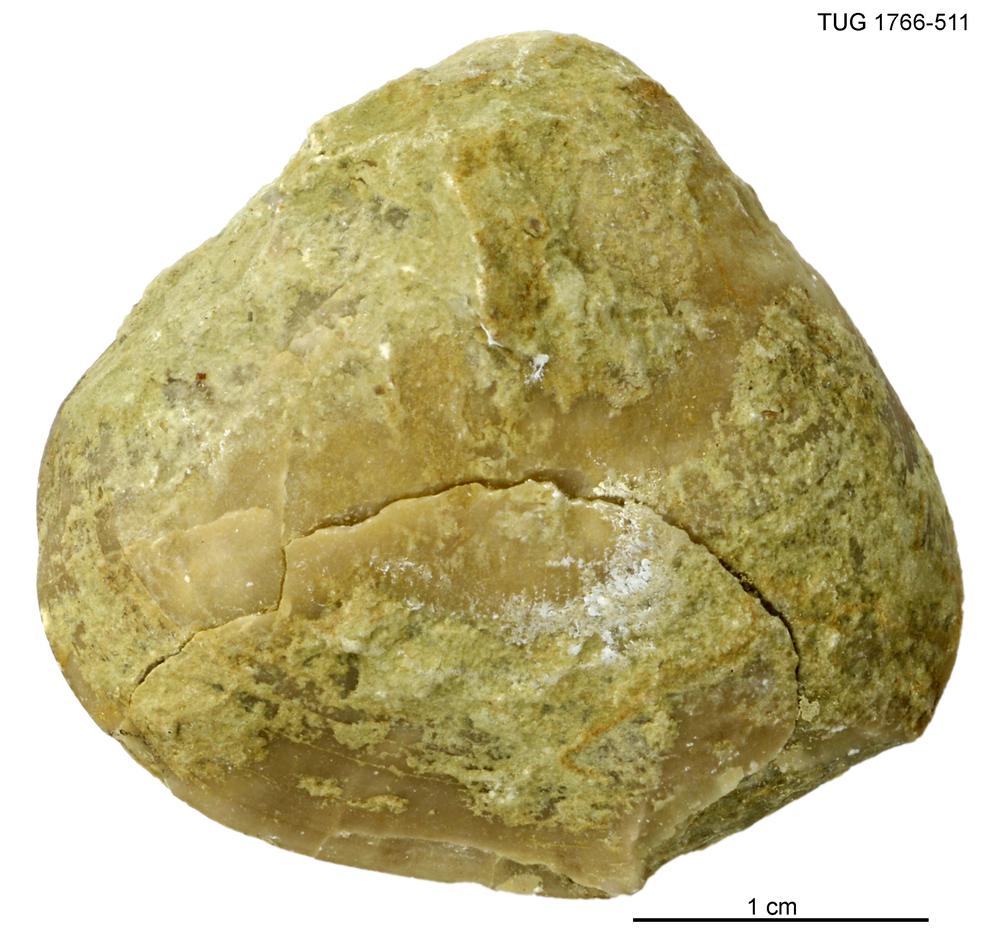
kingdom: Animalia
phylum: Brachiopoda
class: Rhynchonellata
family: Porambonitidae
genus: Porambonites
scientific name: Porambonites
